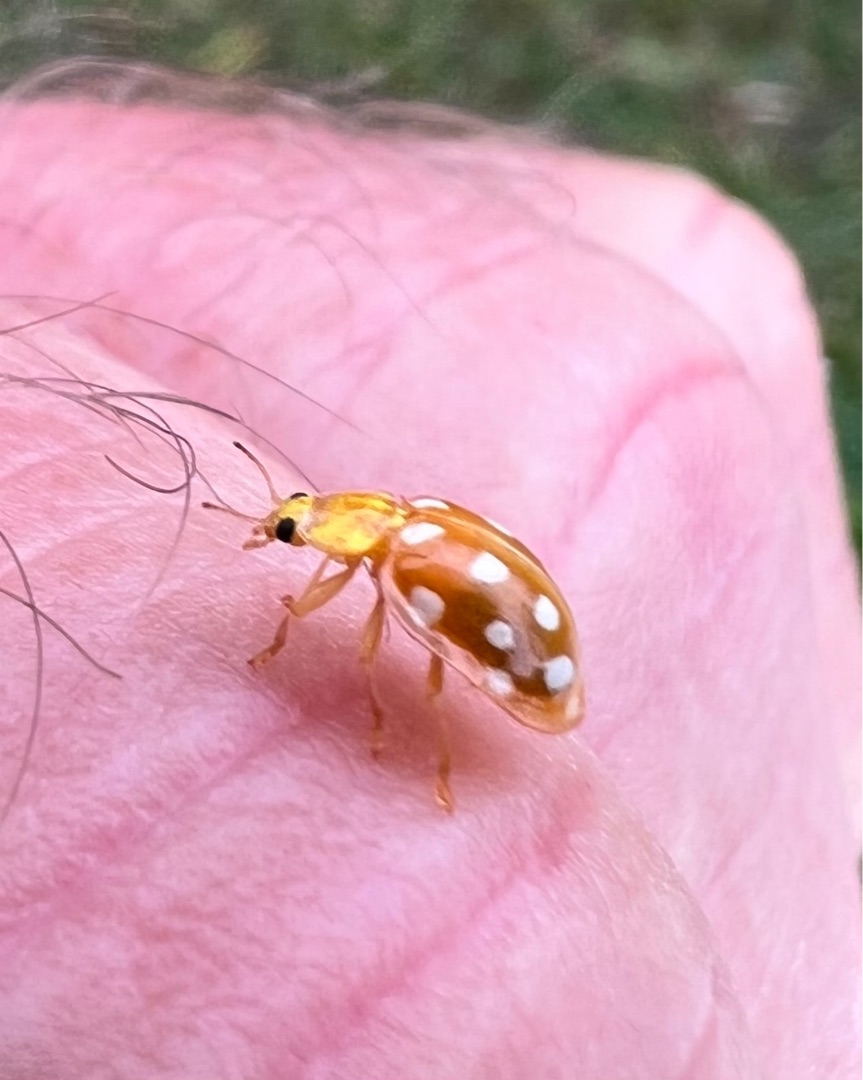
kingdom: Animalia
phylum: Arthropoda
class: Insecta
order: Coleoptera
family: Coccinellidae
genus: Halyzia
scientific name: Halyzia sedecimguttata
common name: Sekstenplettet mariehøne
